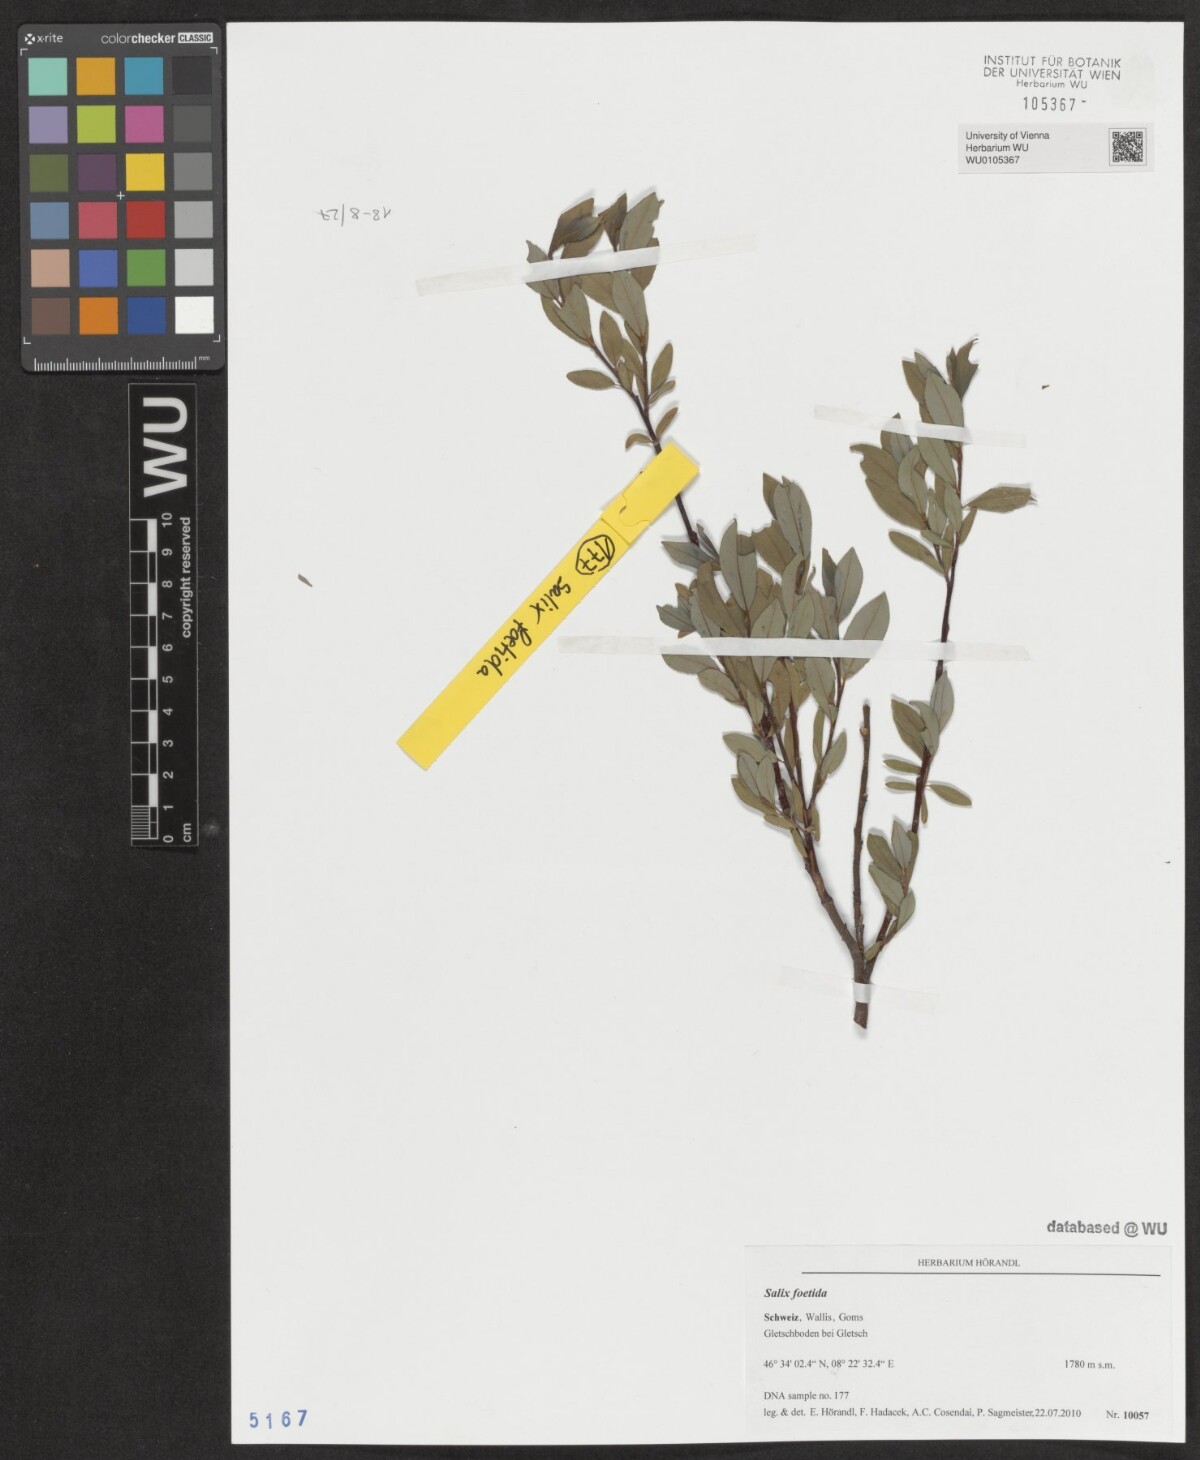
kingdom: Plantae
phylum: Tracheophyta
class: Magnoliopsida
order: Malpighiales
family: Salicaceae
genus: Salix
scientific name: Salix foetida
